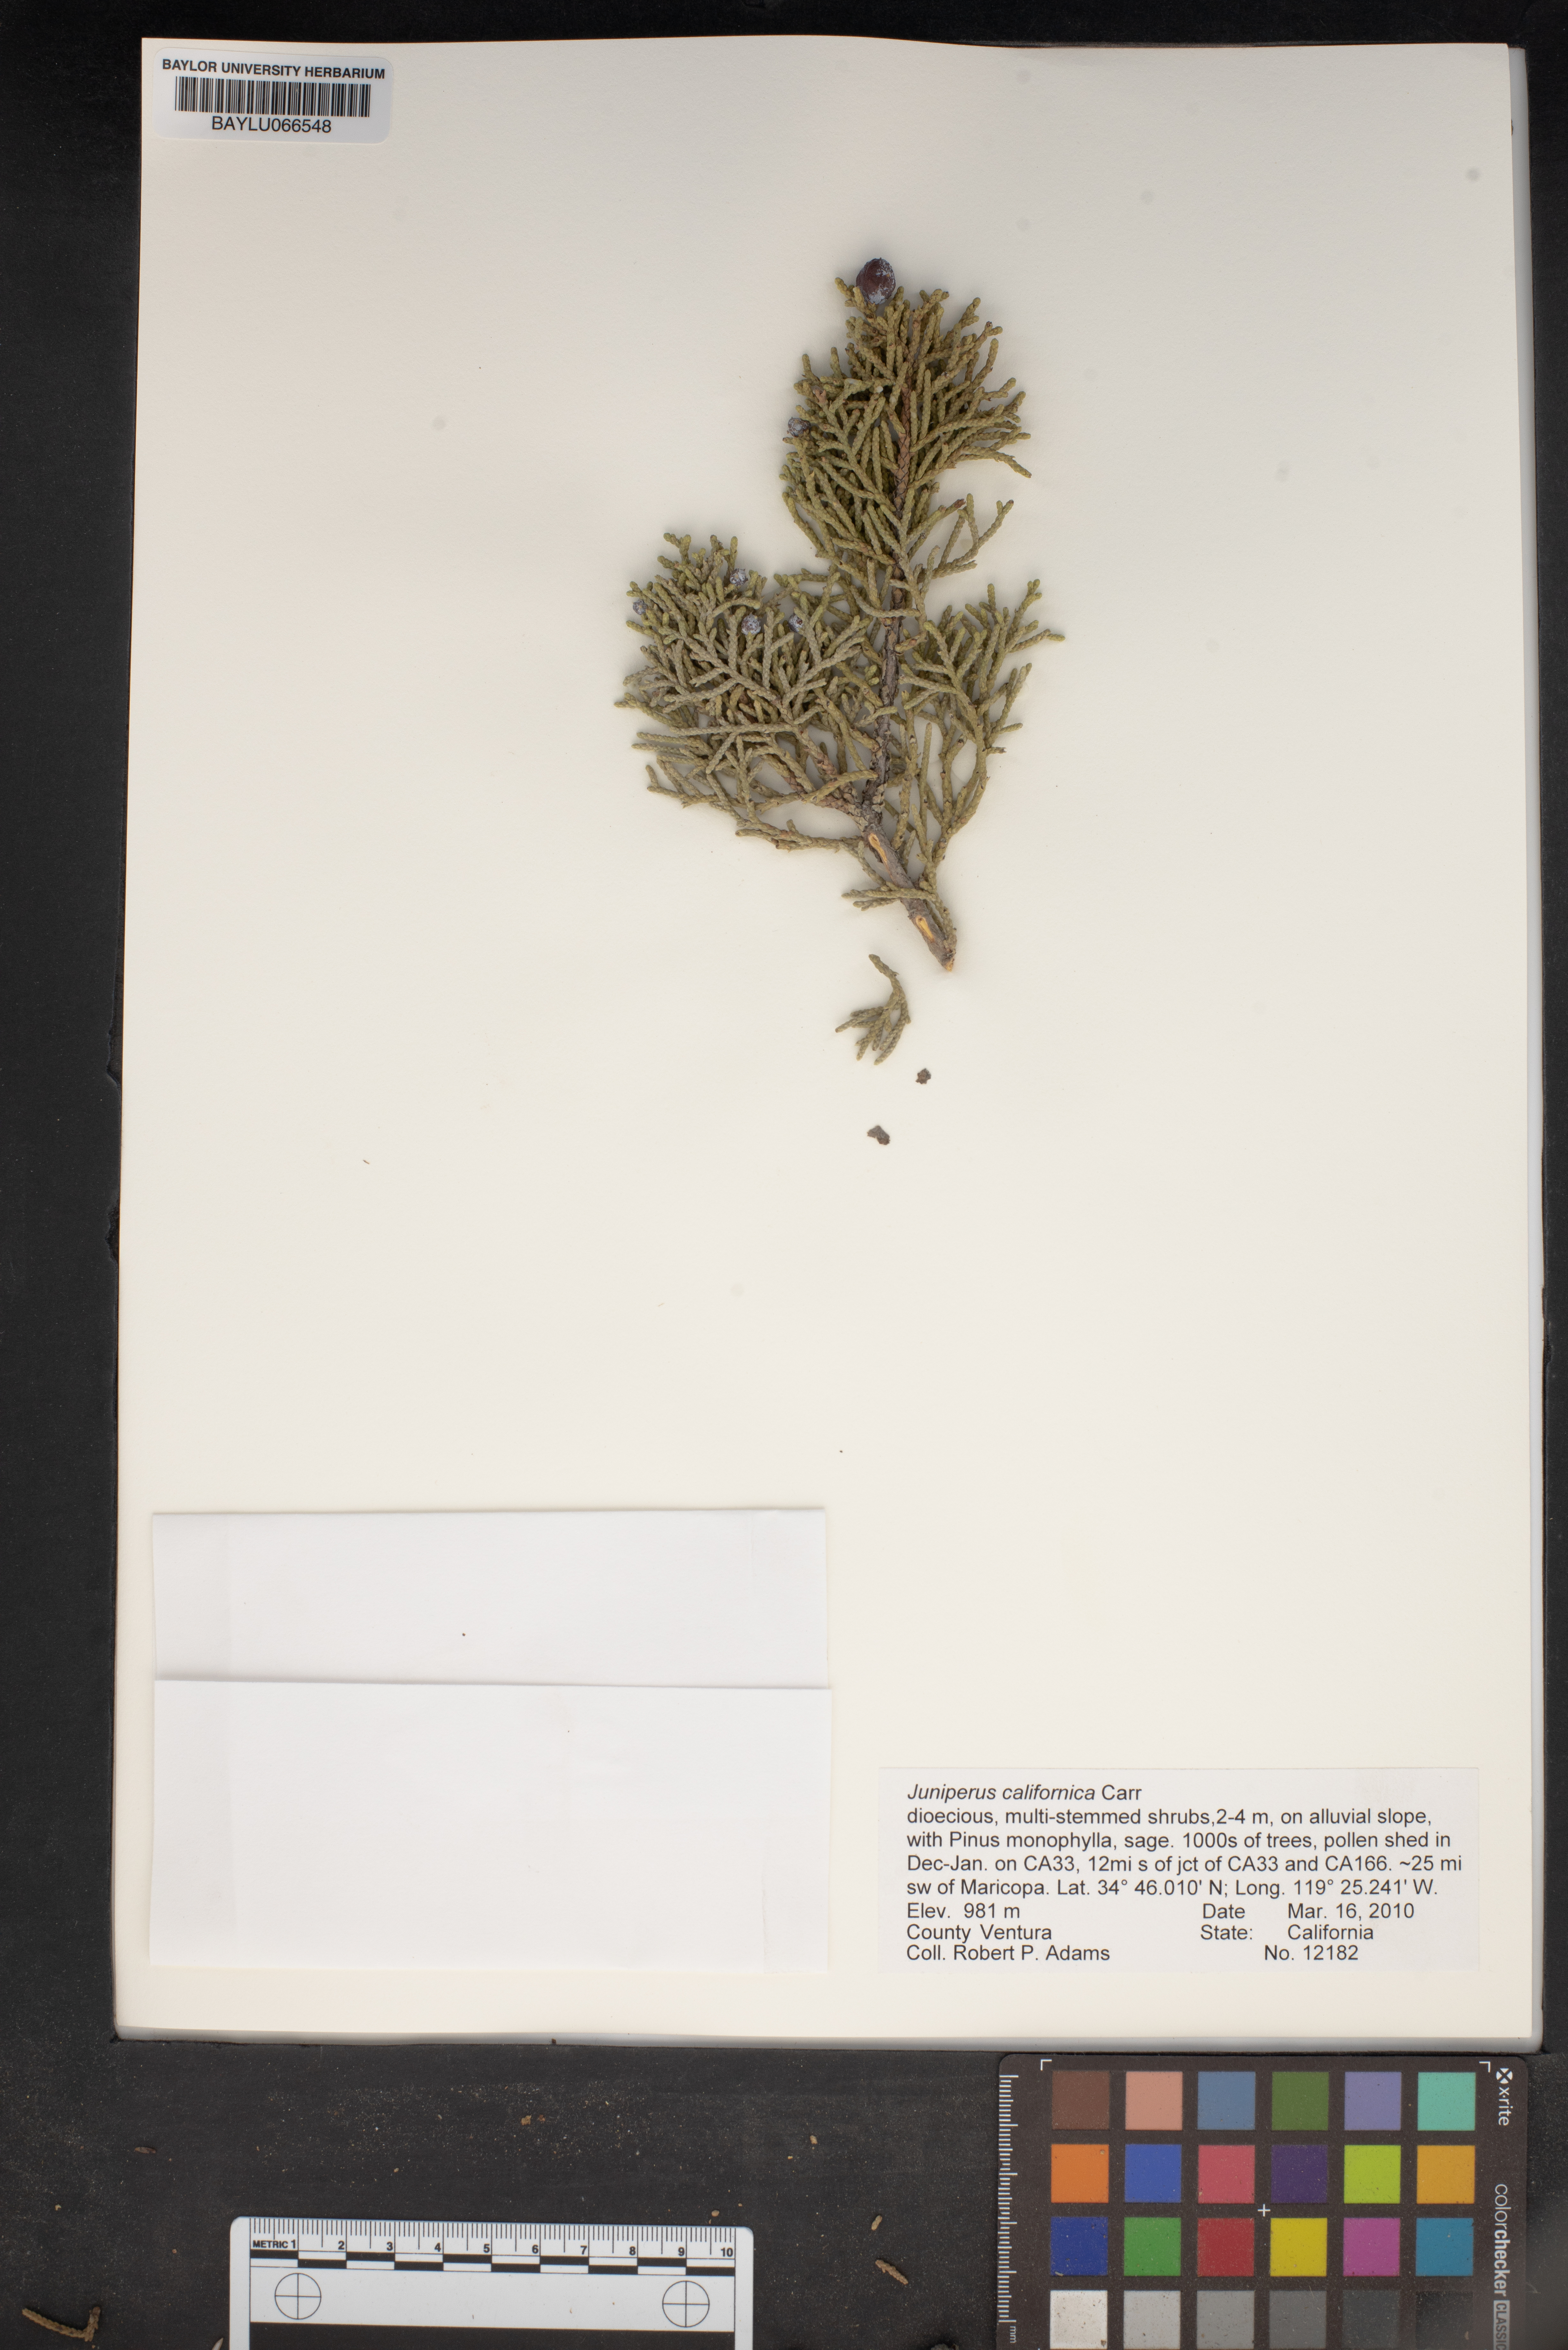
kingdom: Plantae
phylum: Tracheophyta
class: Pinopsida
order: Pinales
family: Cupressaceae
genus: Juniperus
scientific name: Juniperus californica
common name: California juniper
